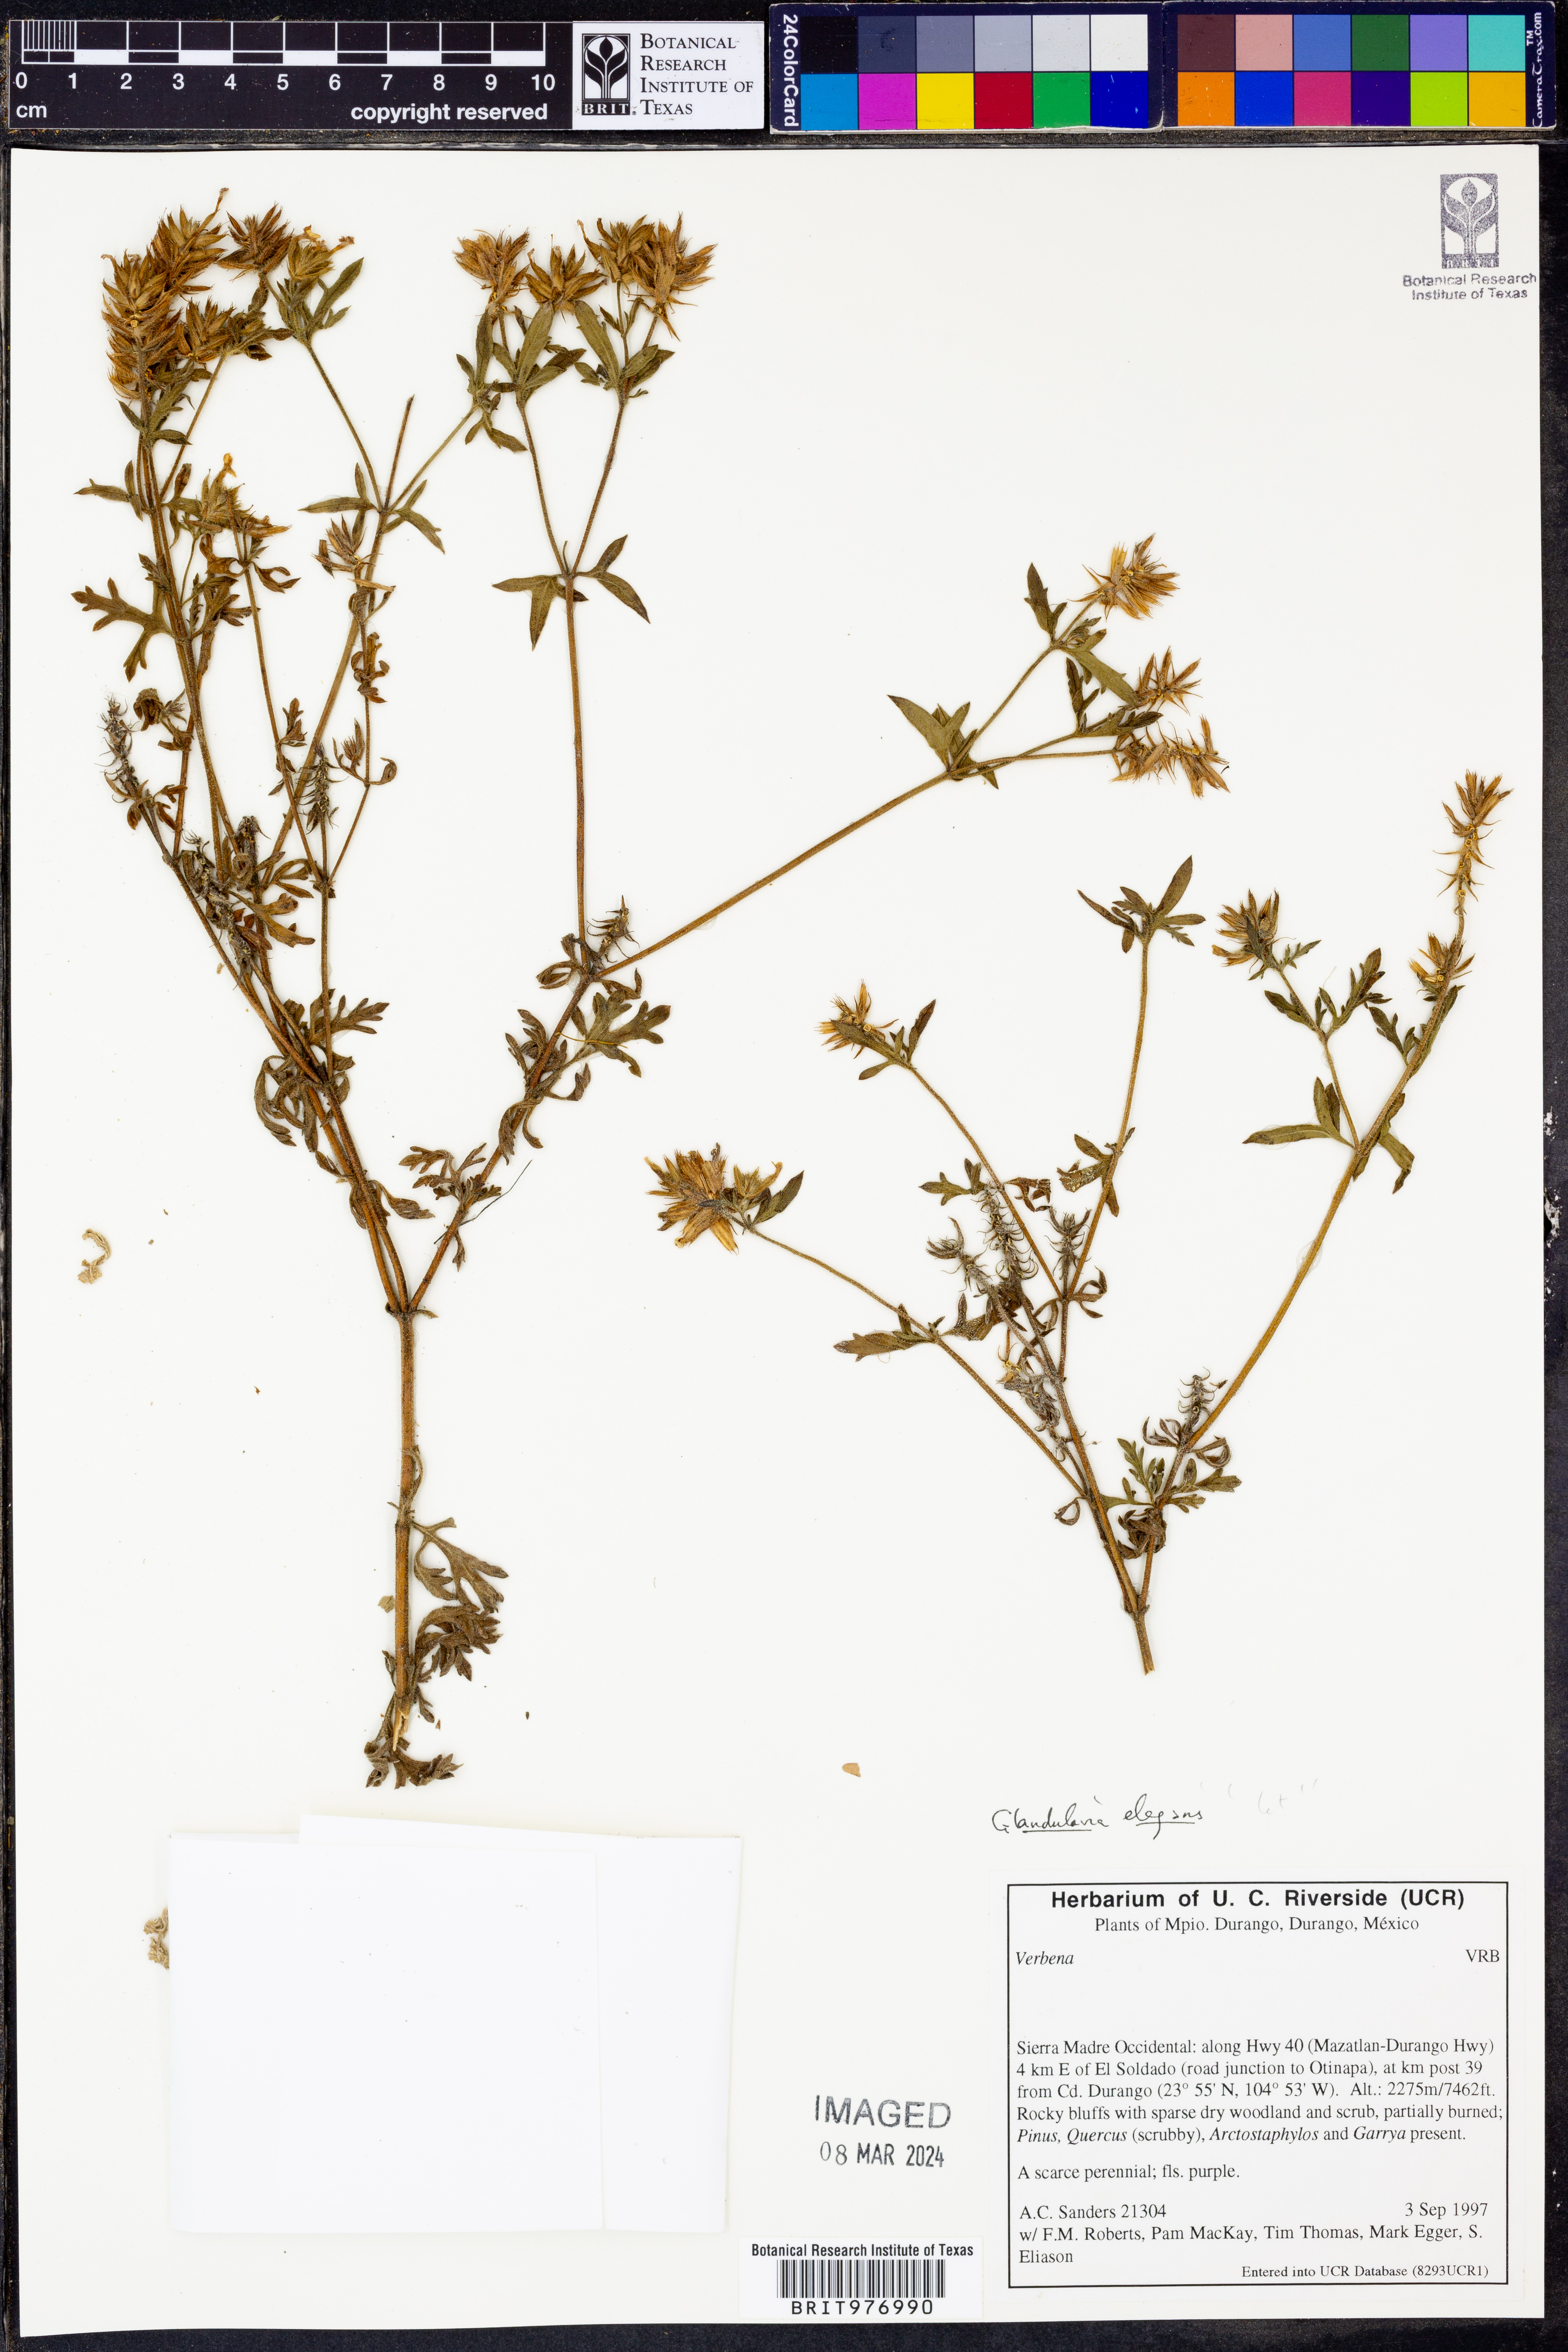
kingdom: Plantae
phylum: Tracheophyta
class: Magnoliopsida
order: Lamiales
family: Verbenaceae
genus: Verbena
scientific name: Verbena elegans
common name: Elegant vervain
